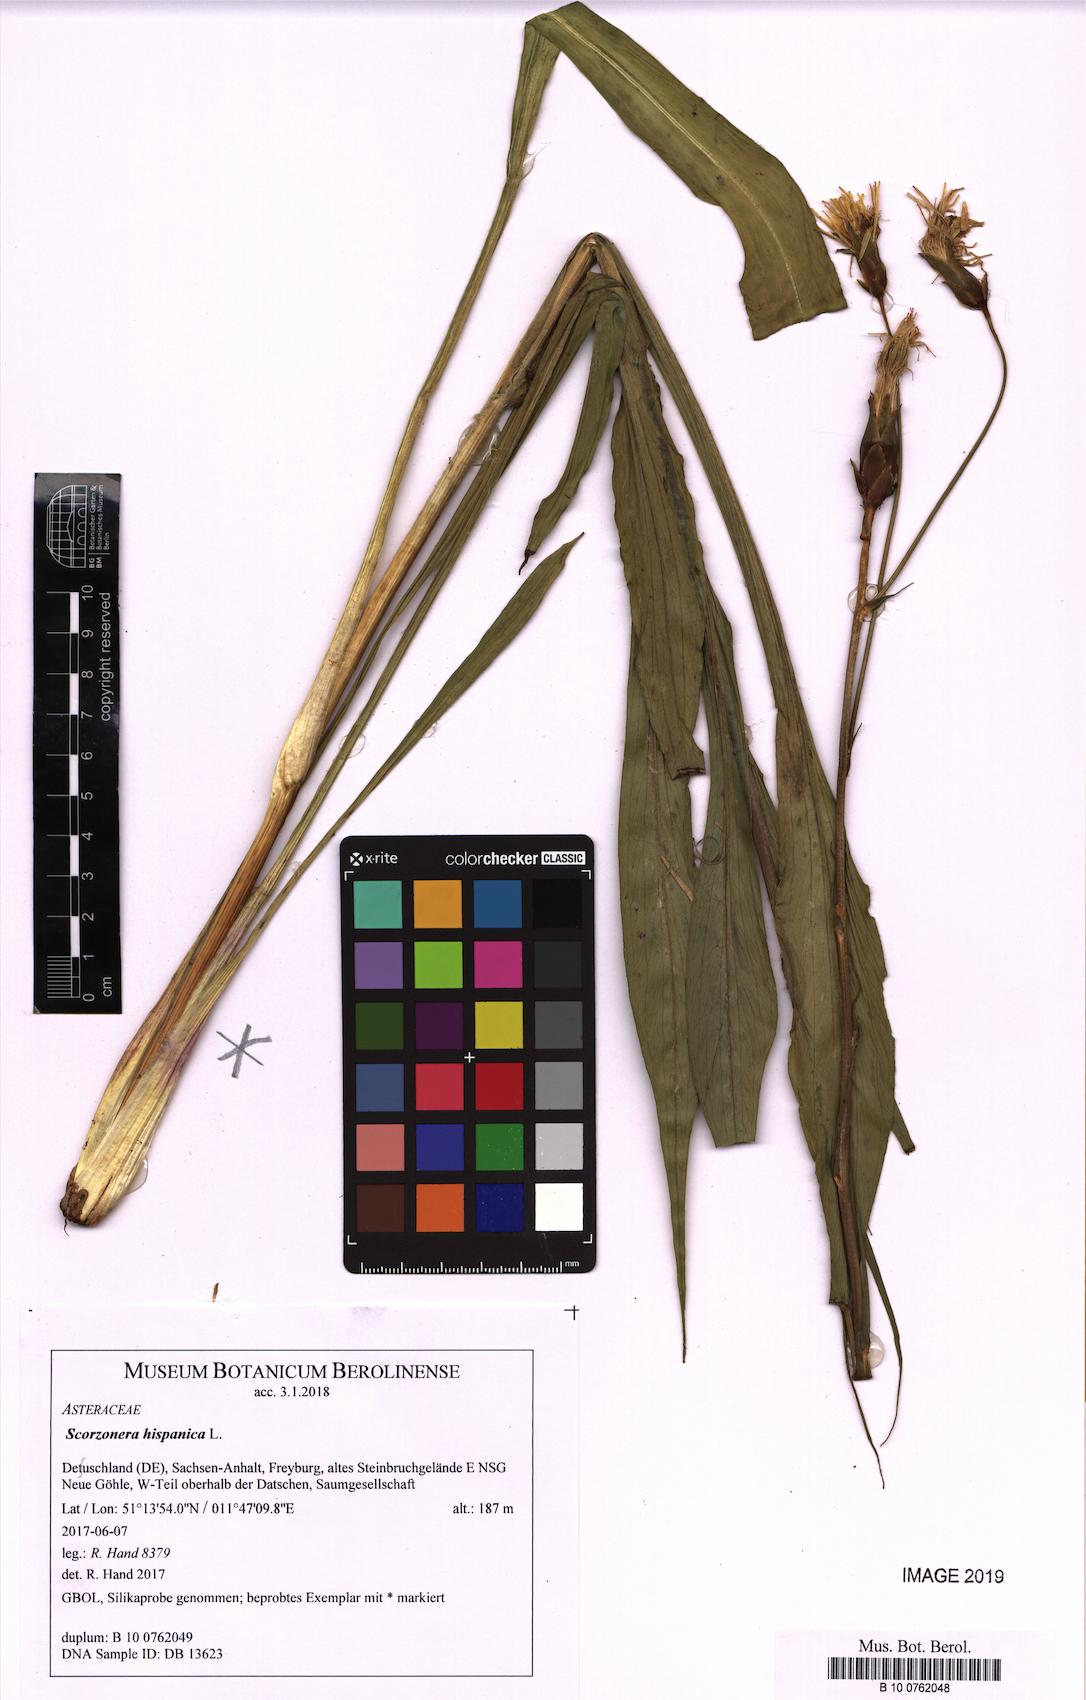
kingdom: Plantae
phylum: Tracheophyta
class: Magnoliopsida
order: Asterales
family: Asteraceae
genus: Pseudopodospermum
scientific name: Pseudopodospermum hispanicum
